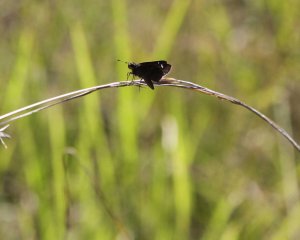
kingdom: Animalia
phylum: Arthropoda
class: Insecta
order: Lepidoptera
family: Hesperiidae
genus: Lerema
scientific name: Lerema accius
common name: Clouded Skipper
